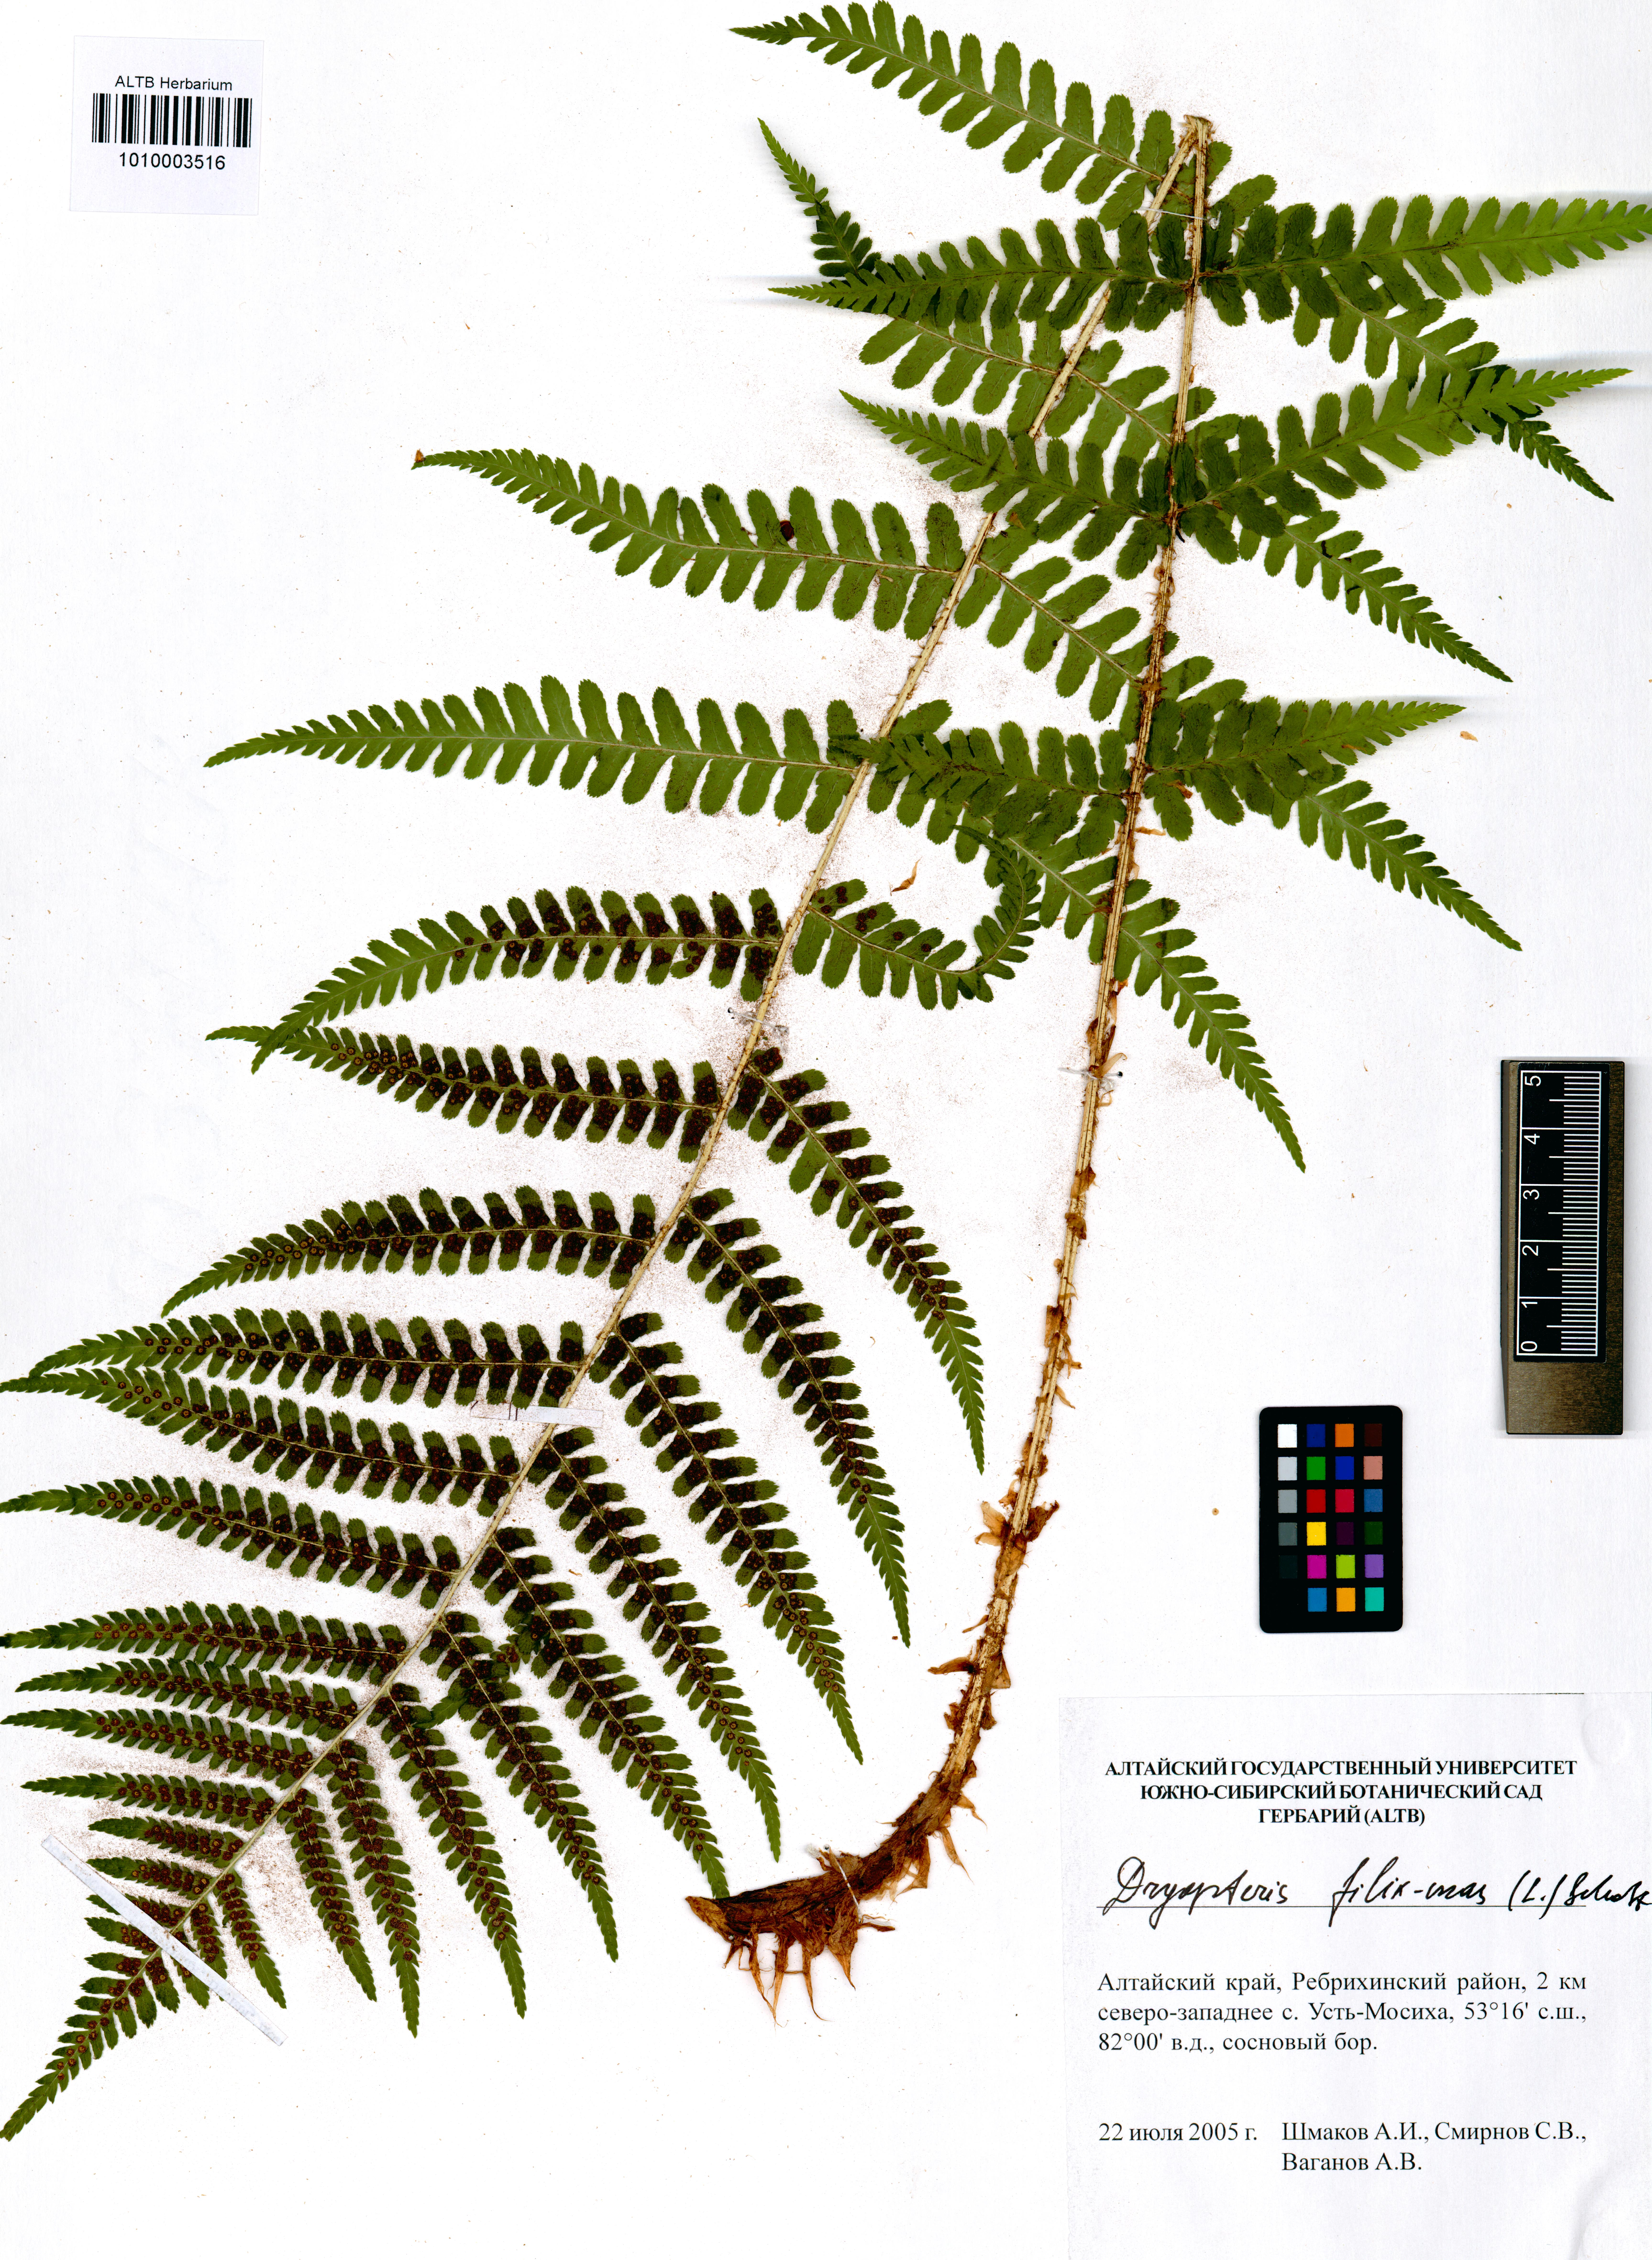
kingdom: Plantae
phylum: Tracheophyta
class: Polypodiopsida
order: Polypodiales
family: Dryopteridaceae
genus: Dryopteris
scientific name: Dryopteris filix-mas
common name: Male fern
